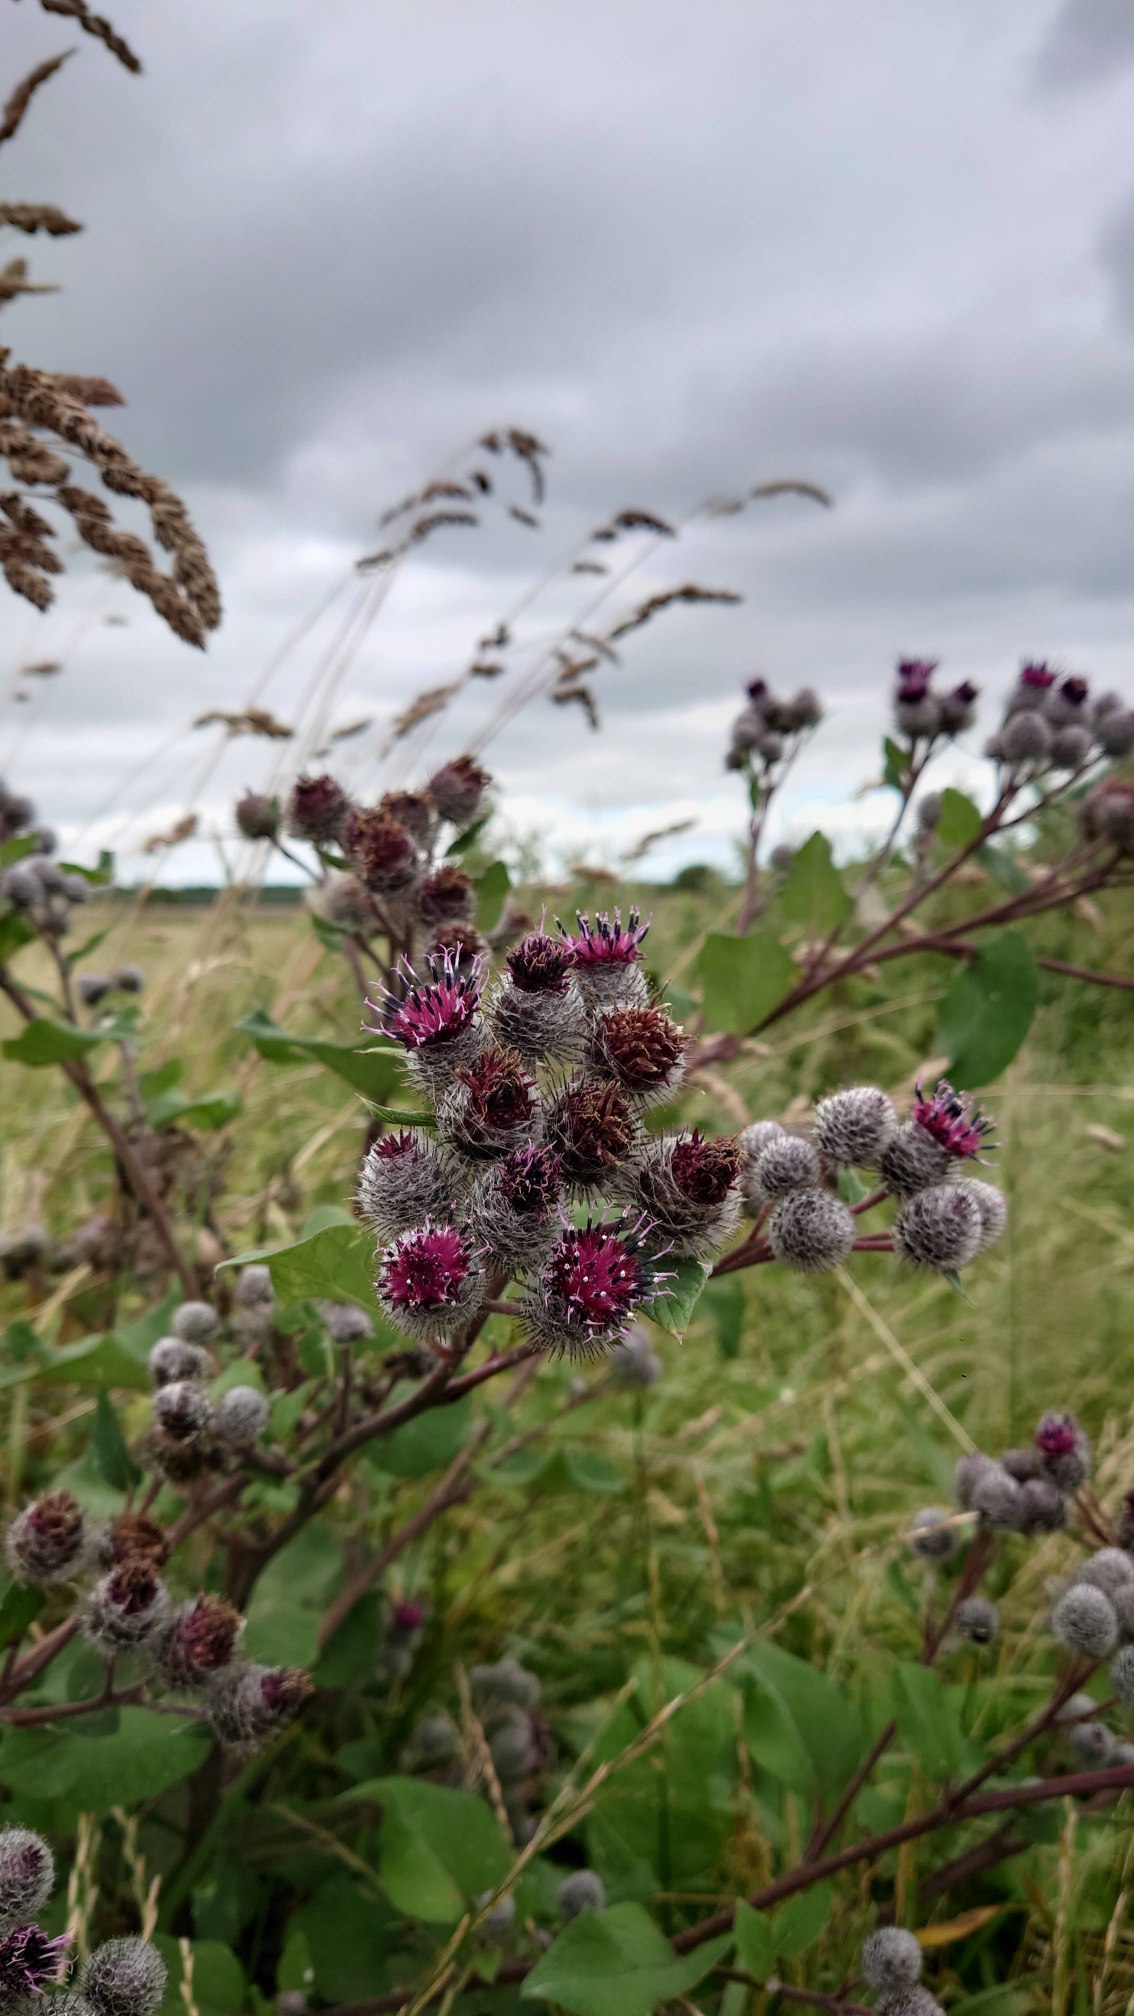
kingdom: Plantae
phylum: Tracheophyta
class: Magnoliopsida
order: Asterales
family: Asteraceae
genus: Arctium
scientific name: Arctium tomentosum
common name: Filtet burre
